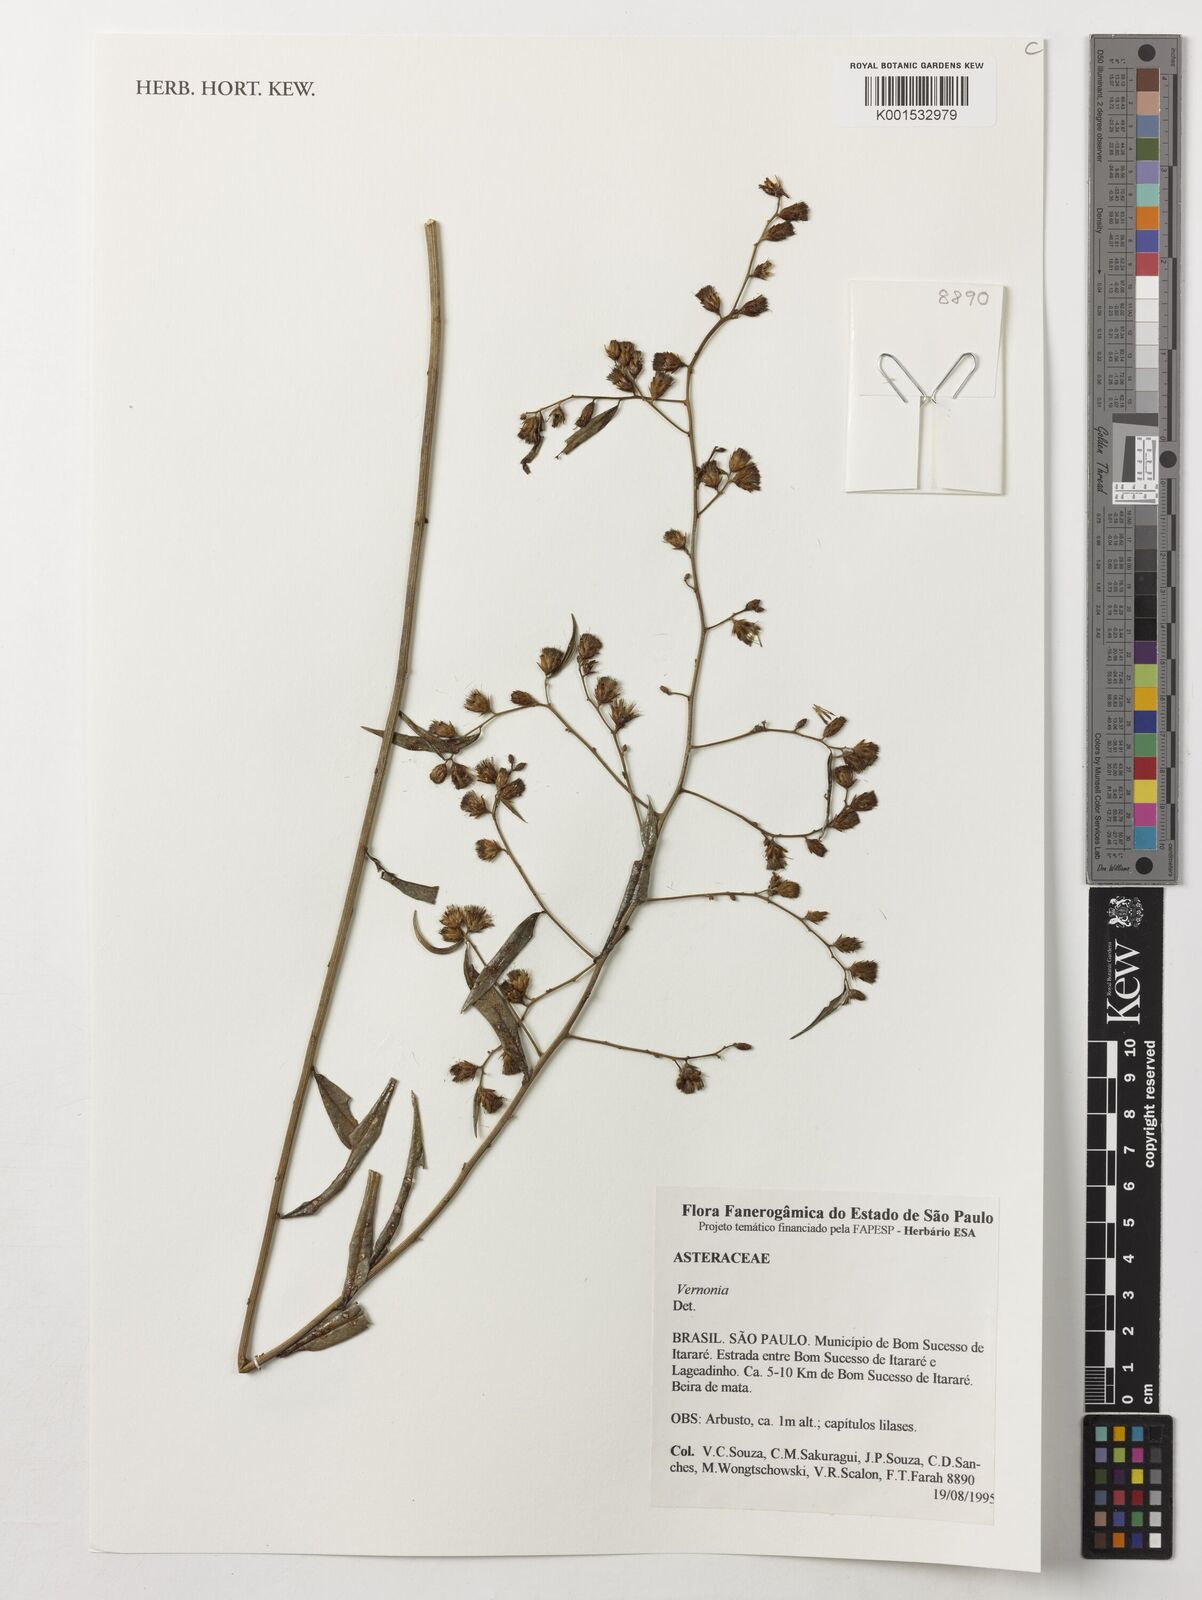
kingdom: Plantae
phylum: Tracheophyta
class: Magnoliopsida
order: Asterales
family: Asteraceae
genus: Vernonia
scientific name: Vernonia
